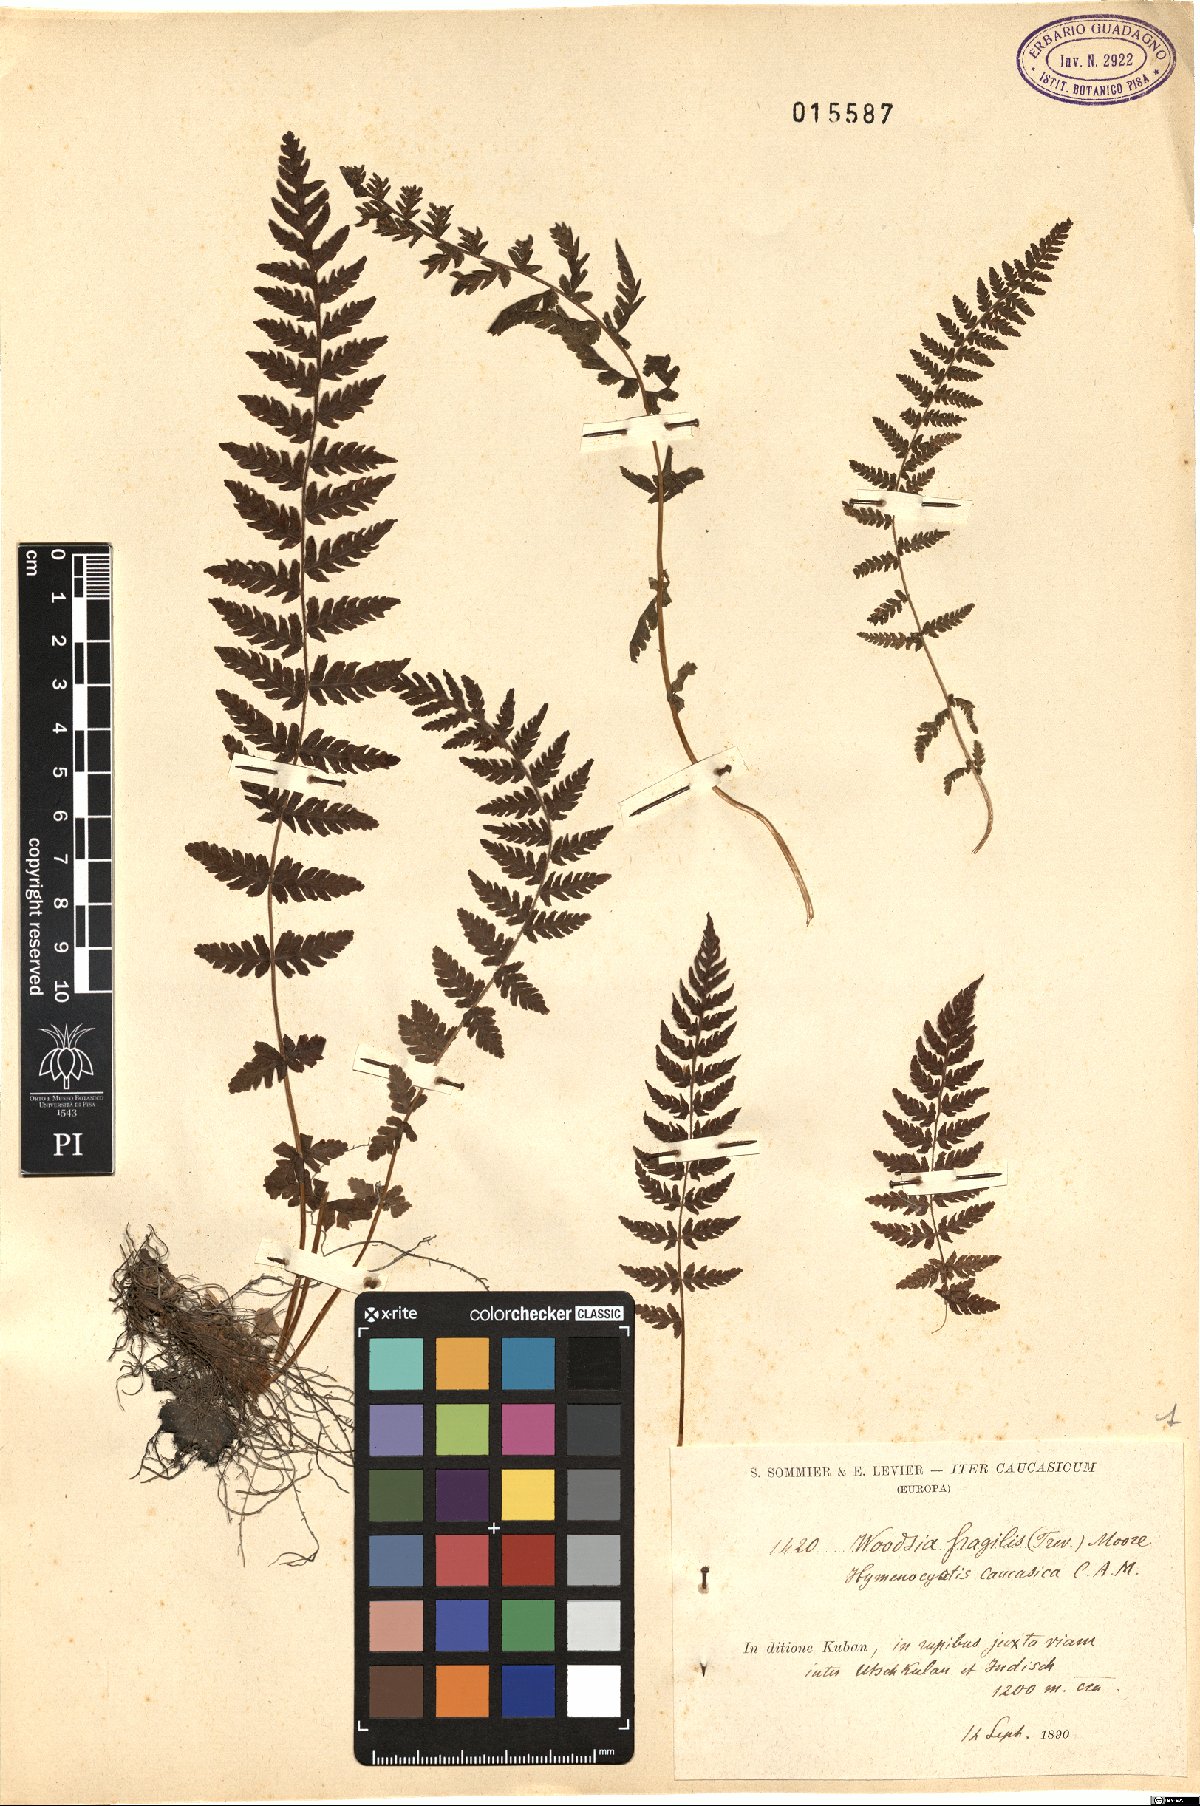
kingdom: Plantae
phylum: Tracheophyta
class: Polypodiopsida
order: Polypodiales
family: Woodsiaceae
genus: Physematium
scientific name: Physematium fragile
